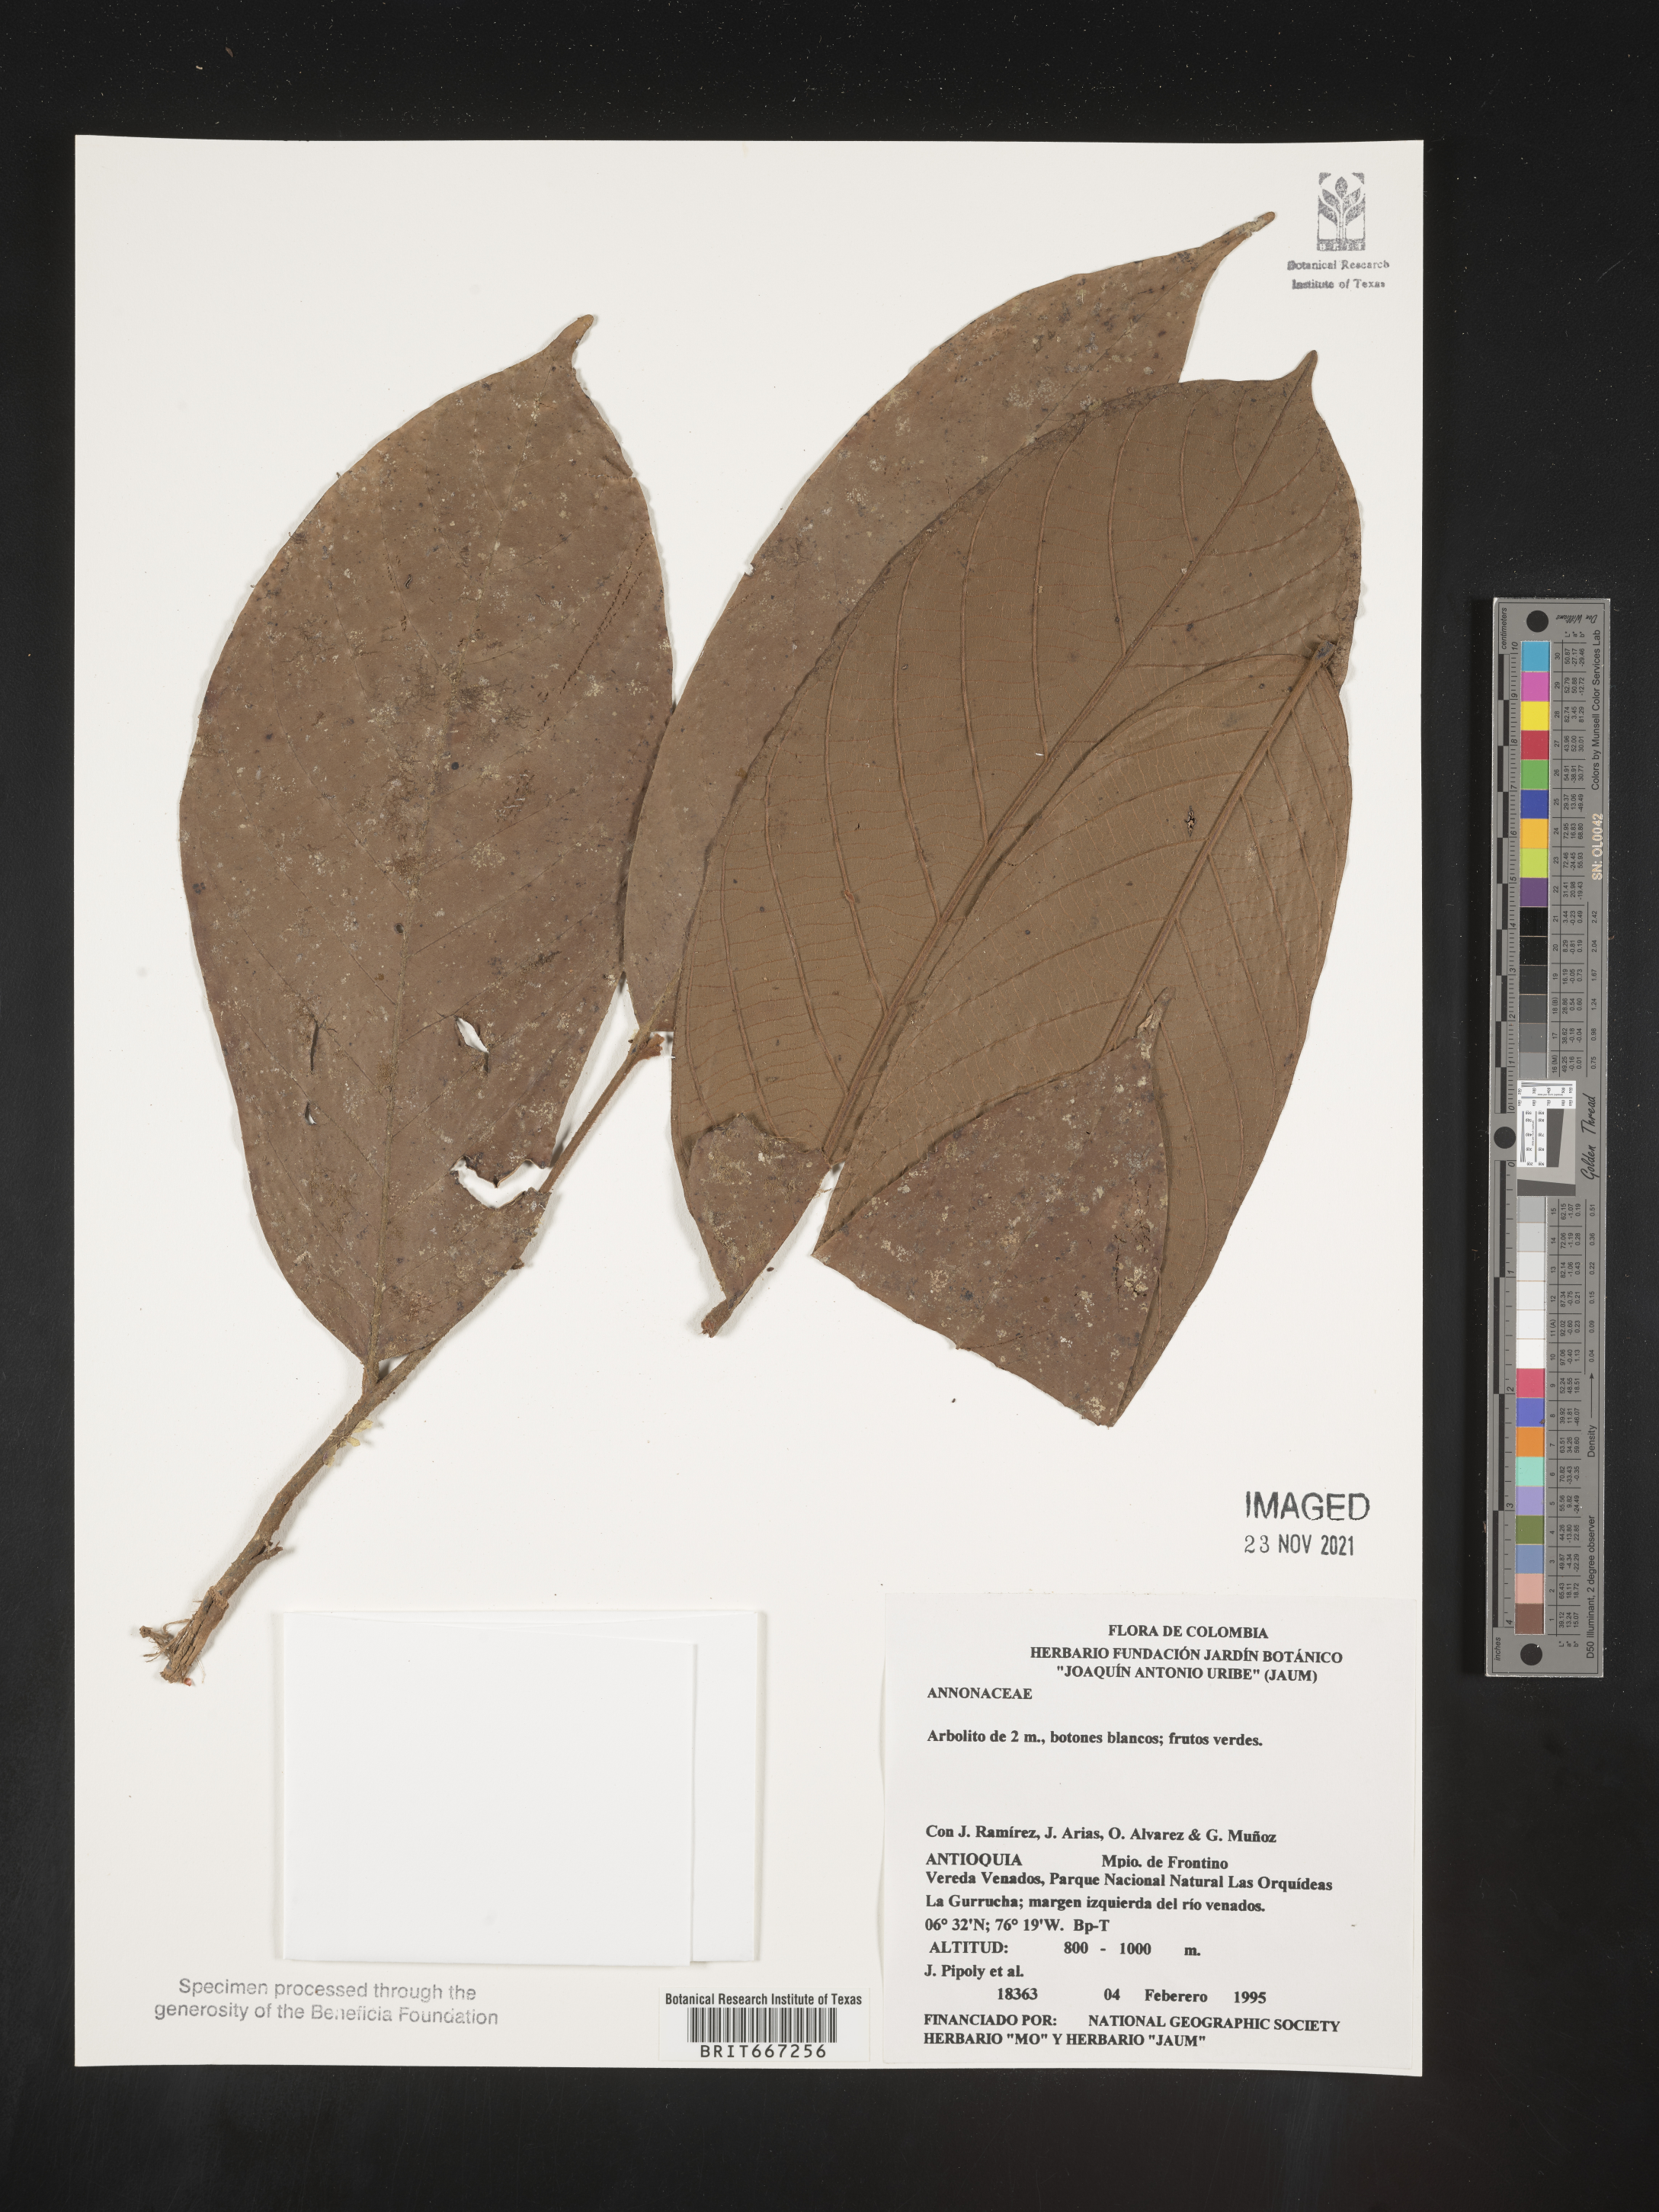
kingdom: Plantae
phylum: Tracheophyta
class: Magnoliopsida
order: Magnoliales
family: Annonaceae
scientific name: Annonaceae
